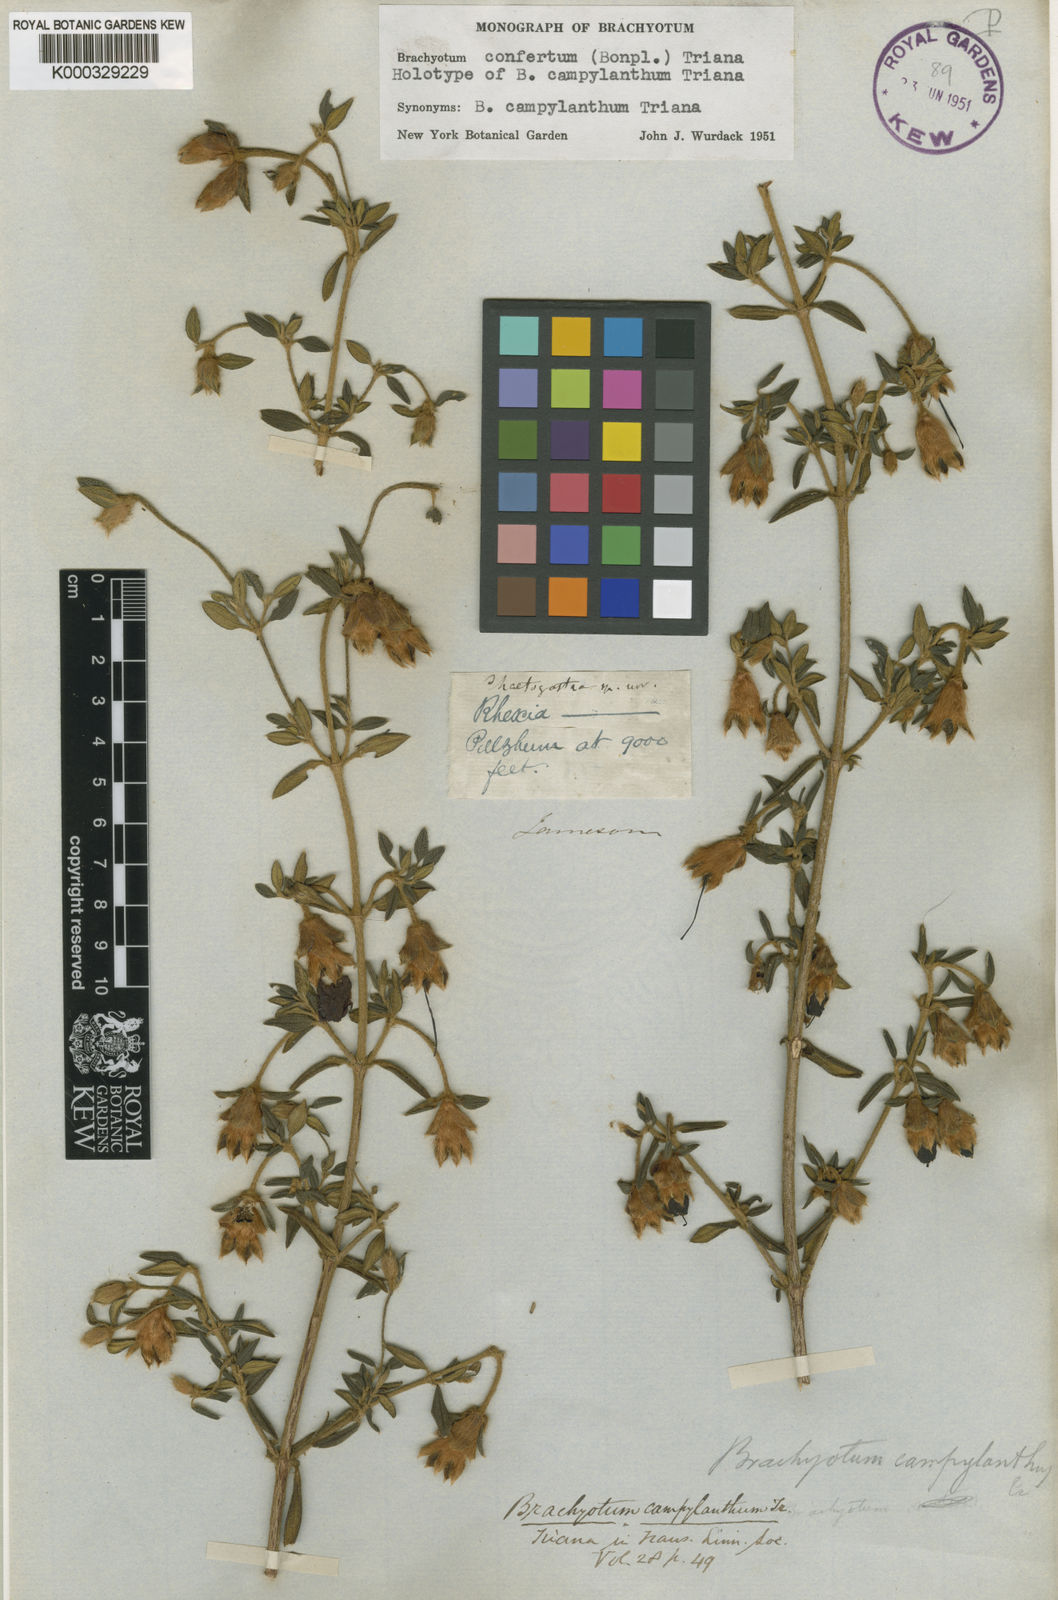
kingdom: Plantae
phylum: Tracheophyta
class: Magnoliopsida
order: Myrtales
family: Melastomataceae
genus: Brachyotum
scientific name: Brachyotum confertum
